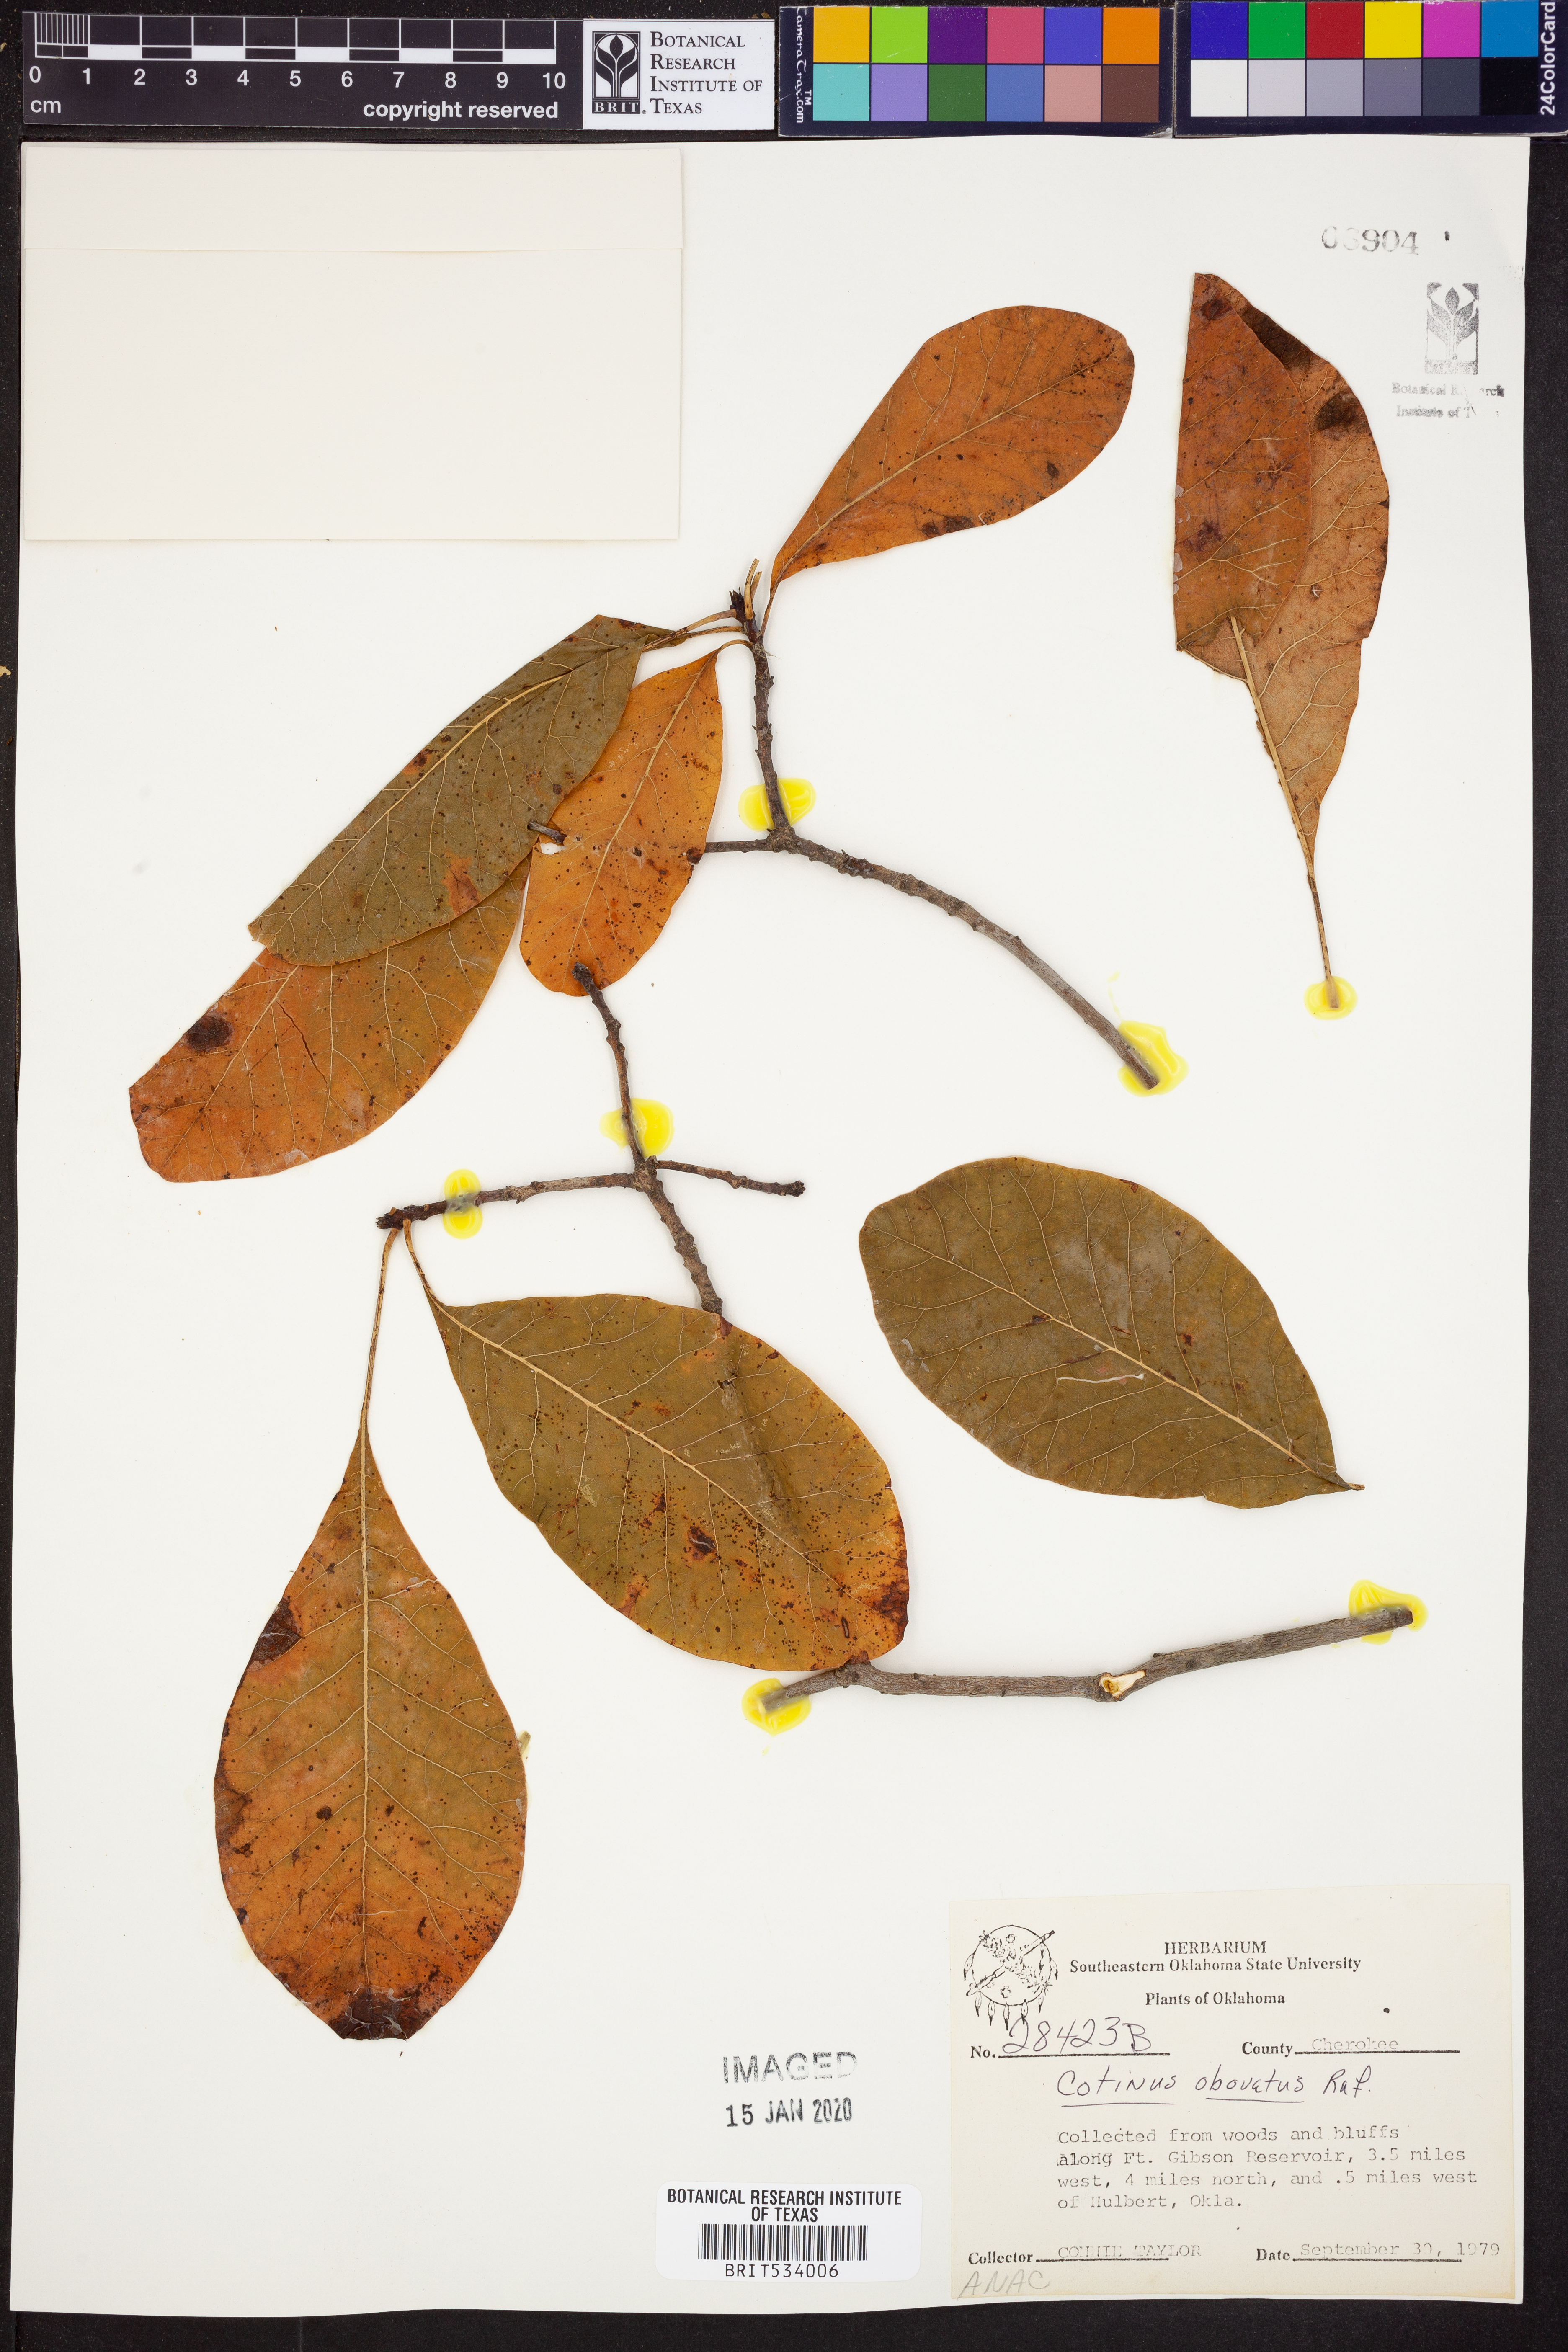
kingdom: Plantae
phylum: Tracheophyta
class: Magnoliopsida
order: Sapindales
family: Anacardiaceae
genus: Cotinus
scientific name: Cotinus obovatus
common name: Chittamwood
